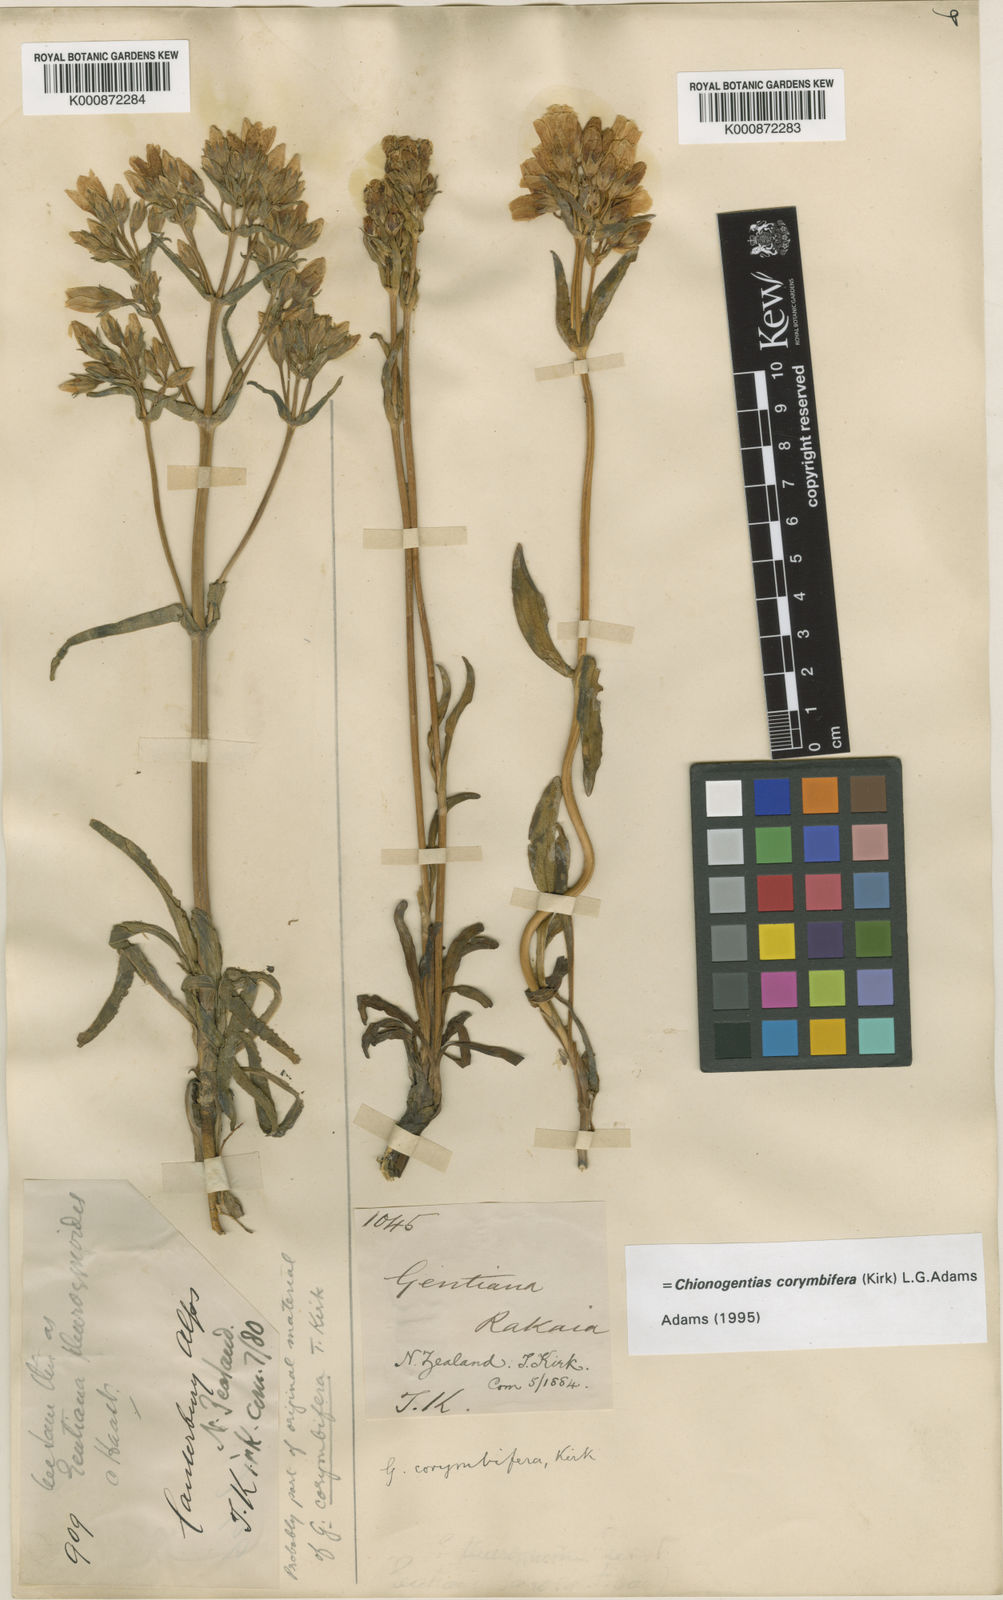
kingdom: Plantae
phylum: Tracheophyta
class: Magnoliopsida
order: Gentianales
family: Gentianaceae
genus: Gentianella
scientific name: Gentianella corymbifera
